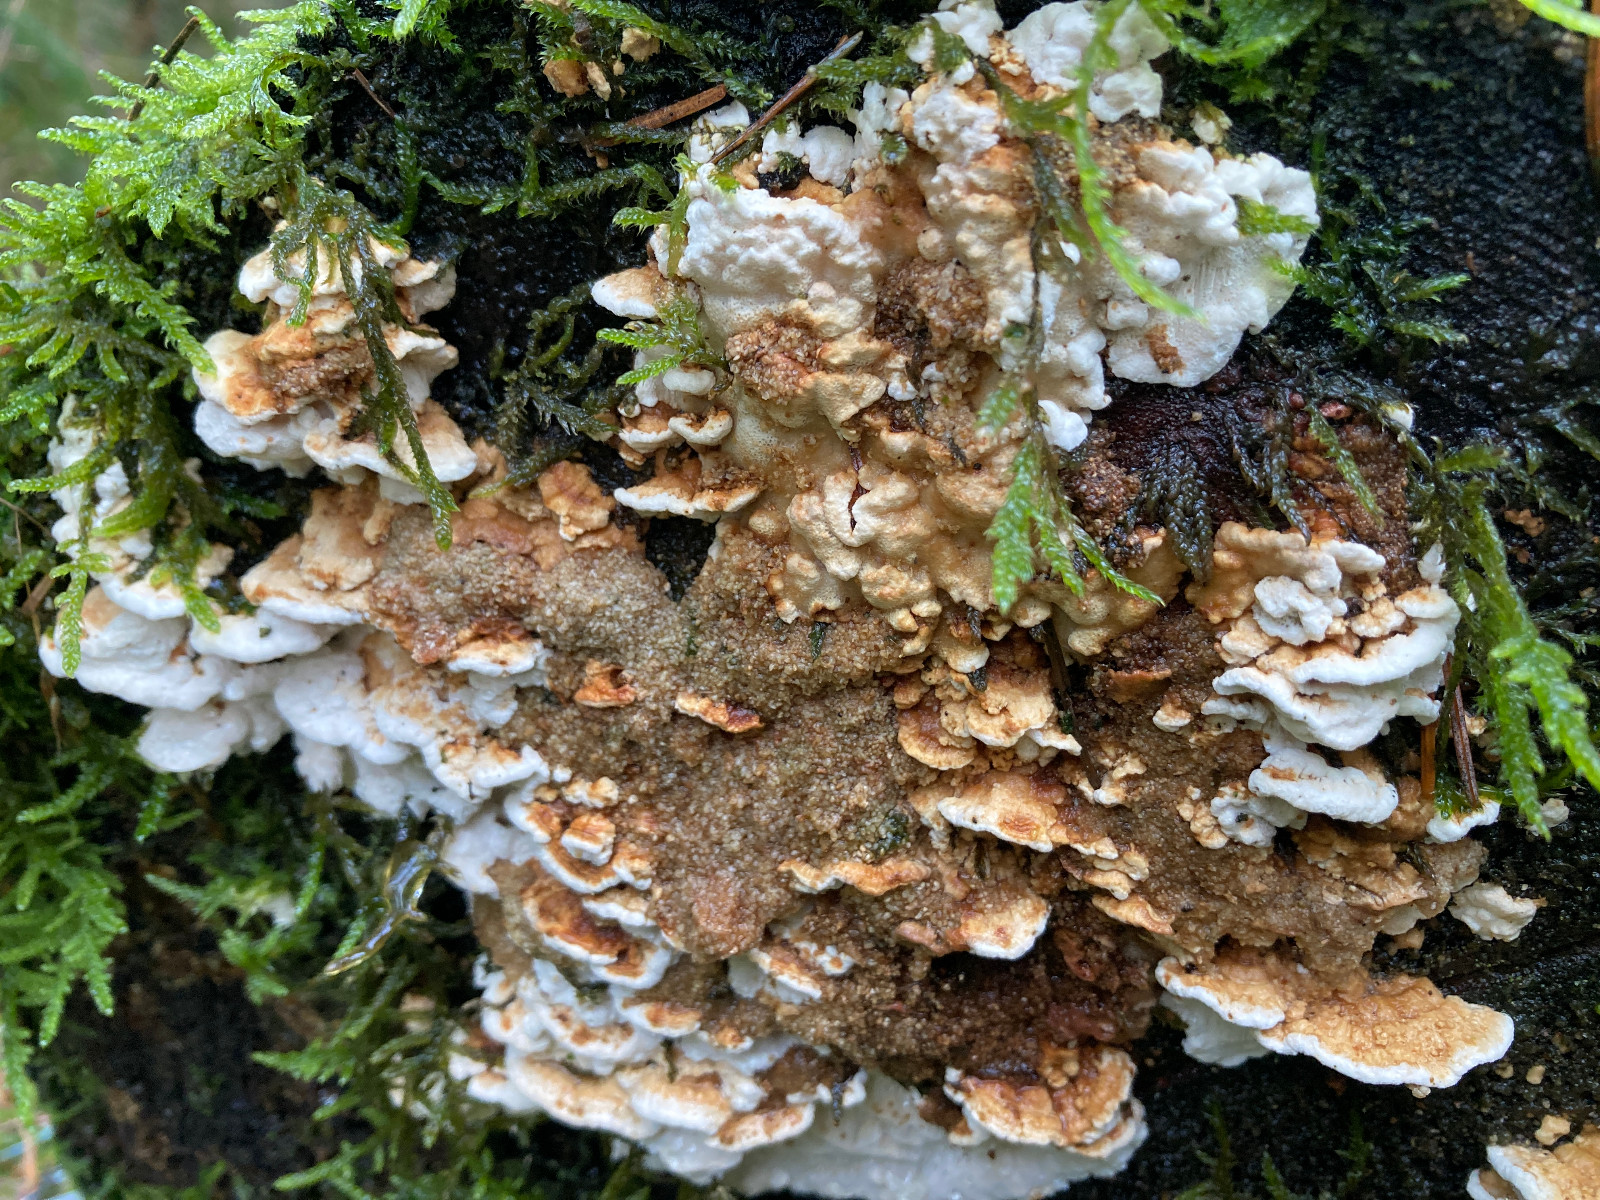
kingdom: Fungi
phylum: Basidiomycota
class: Agaricomycetes
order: Polyporales
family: Fomitopsidaceae
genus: Neoantrodia
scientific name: Neoantrodia serialis
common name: række-sejporesvamp
